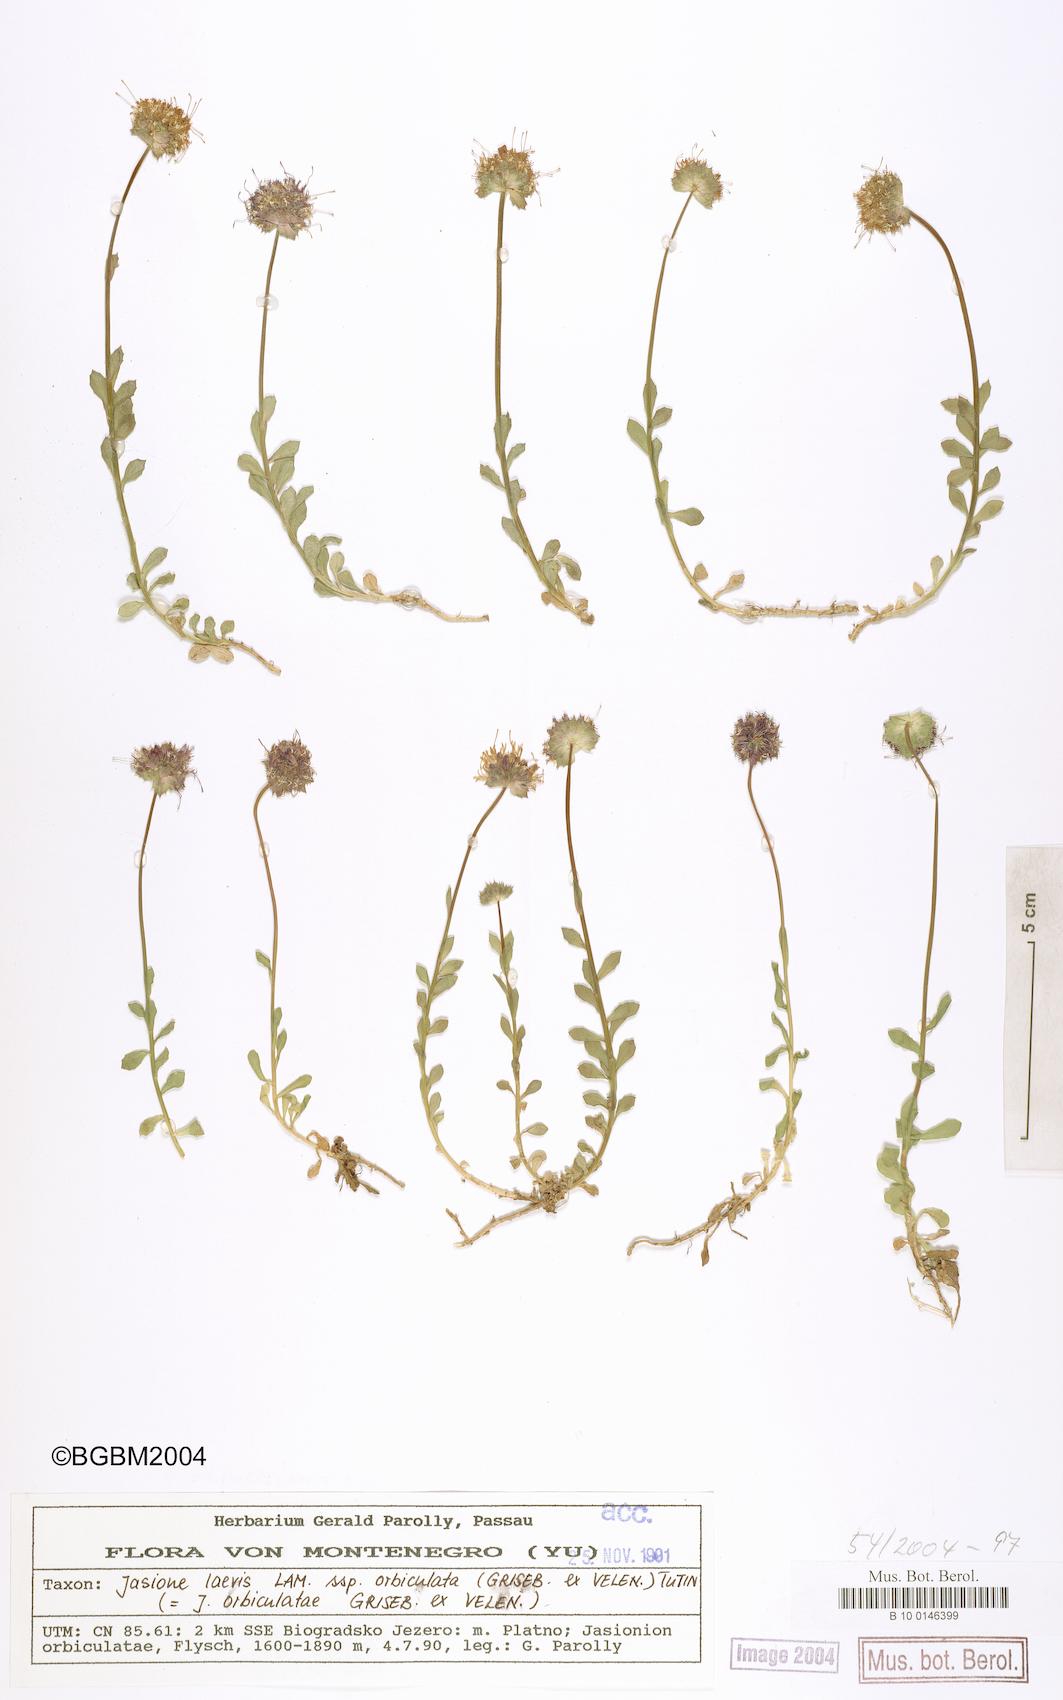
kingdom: Plantae
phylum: Tracheophyta
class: Magnoliopsida
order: Asterales
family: Campanulaceae
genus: Jasione
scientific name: Jasione orbiculata
